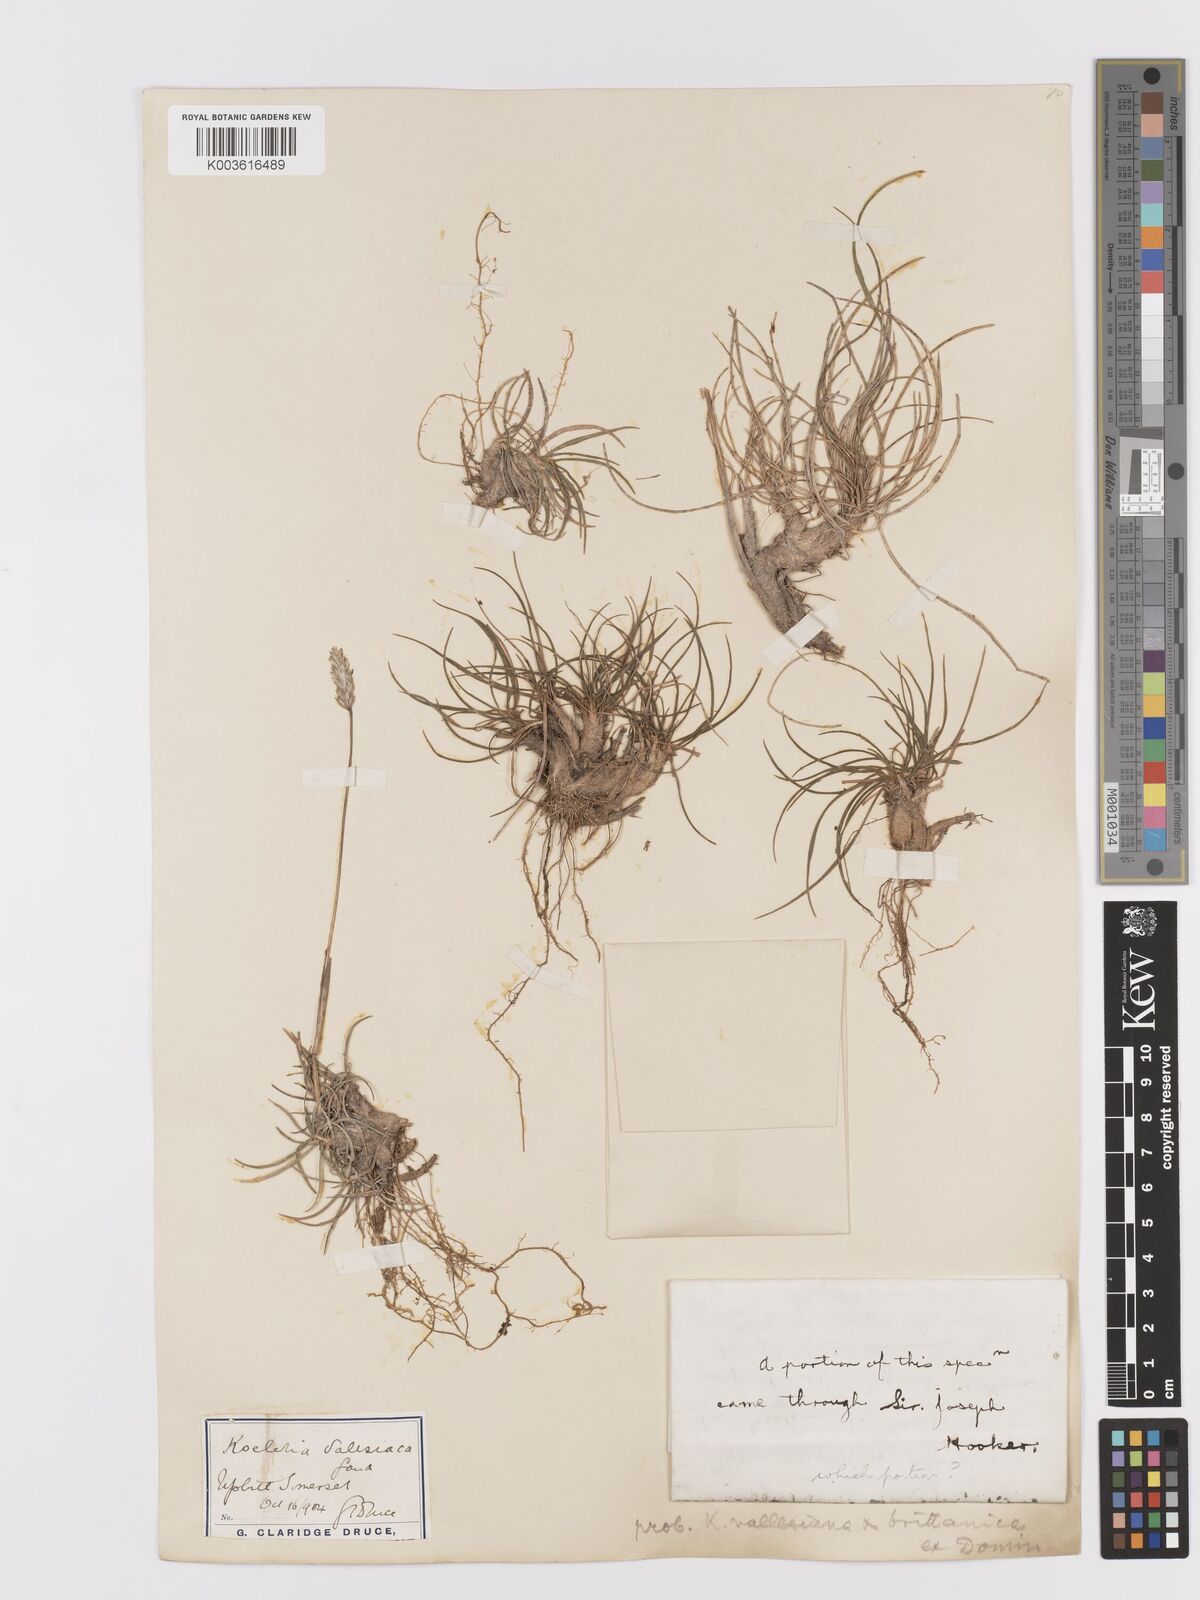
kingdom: Plantae
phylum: Tracheophyta
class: Liliopsida
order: Poales
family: Poaceae
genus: Koeleria
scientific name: Koeleria vallesiana
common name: Somerset hair-grass
